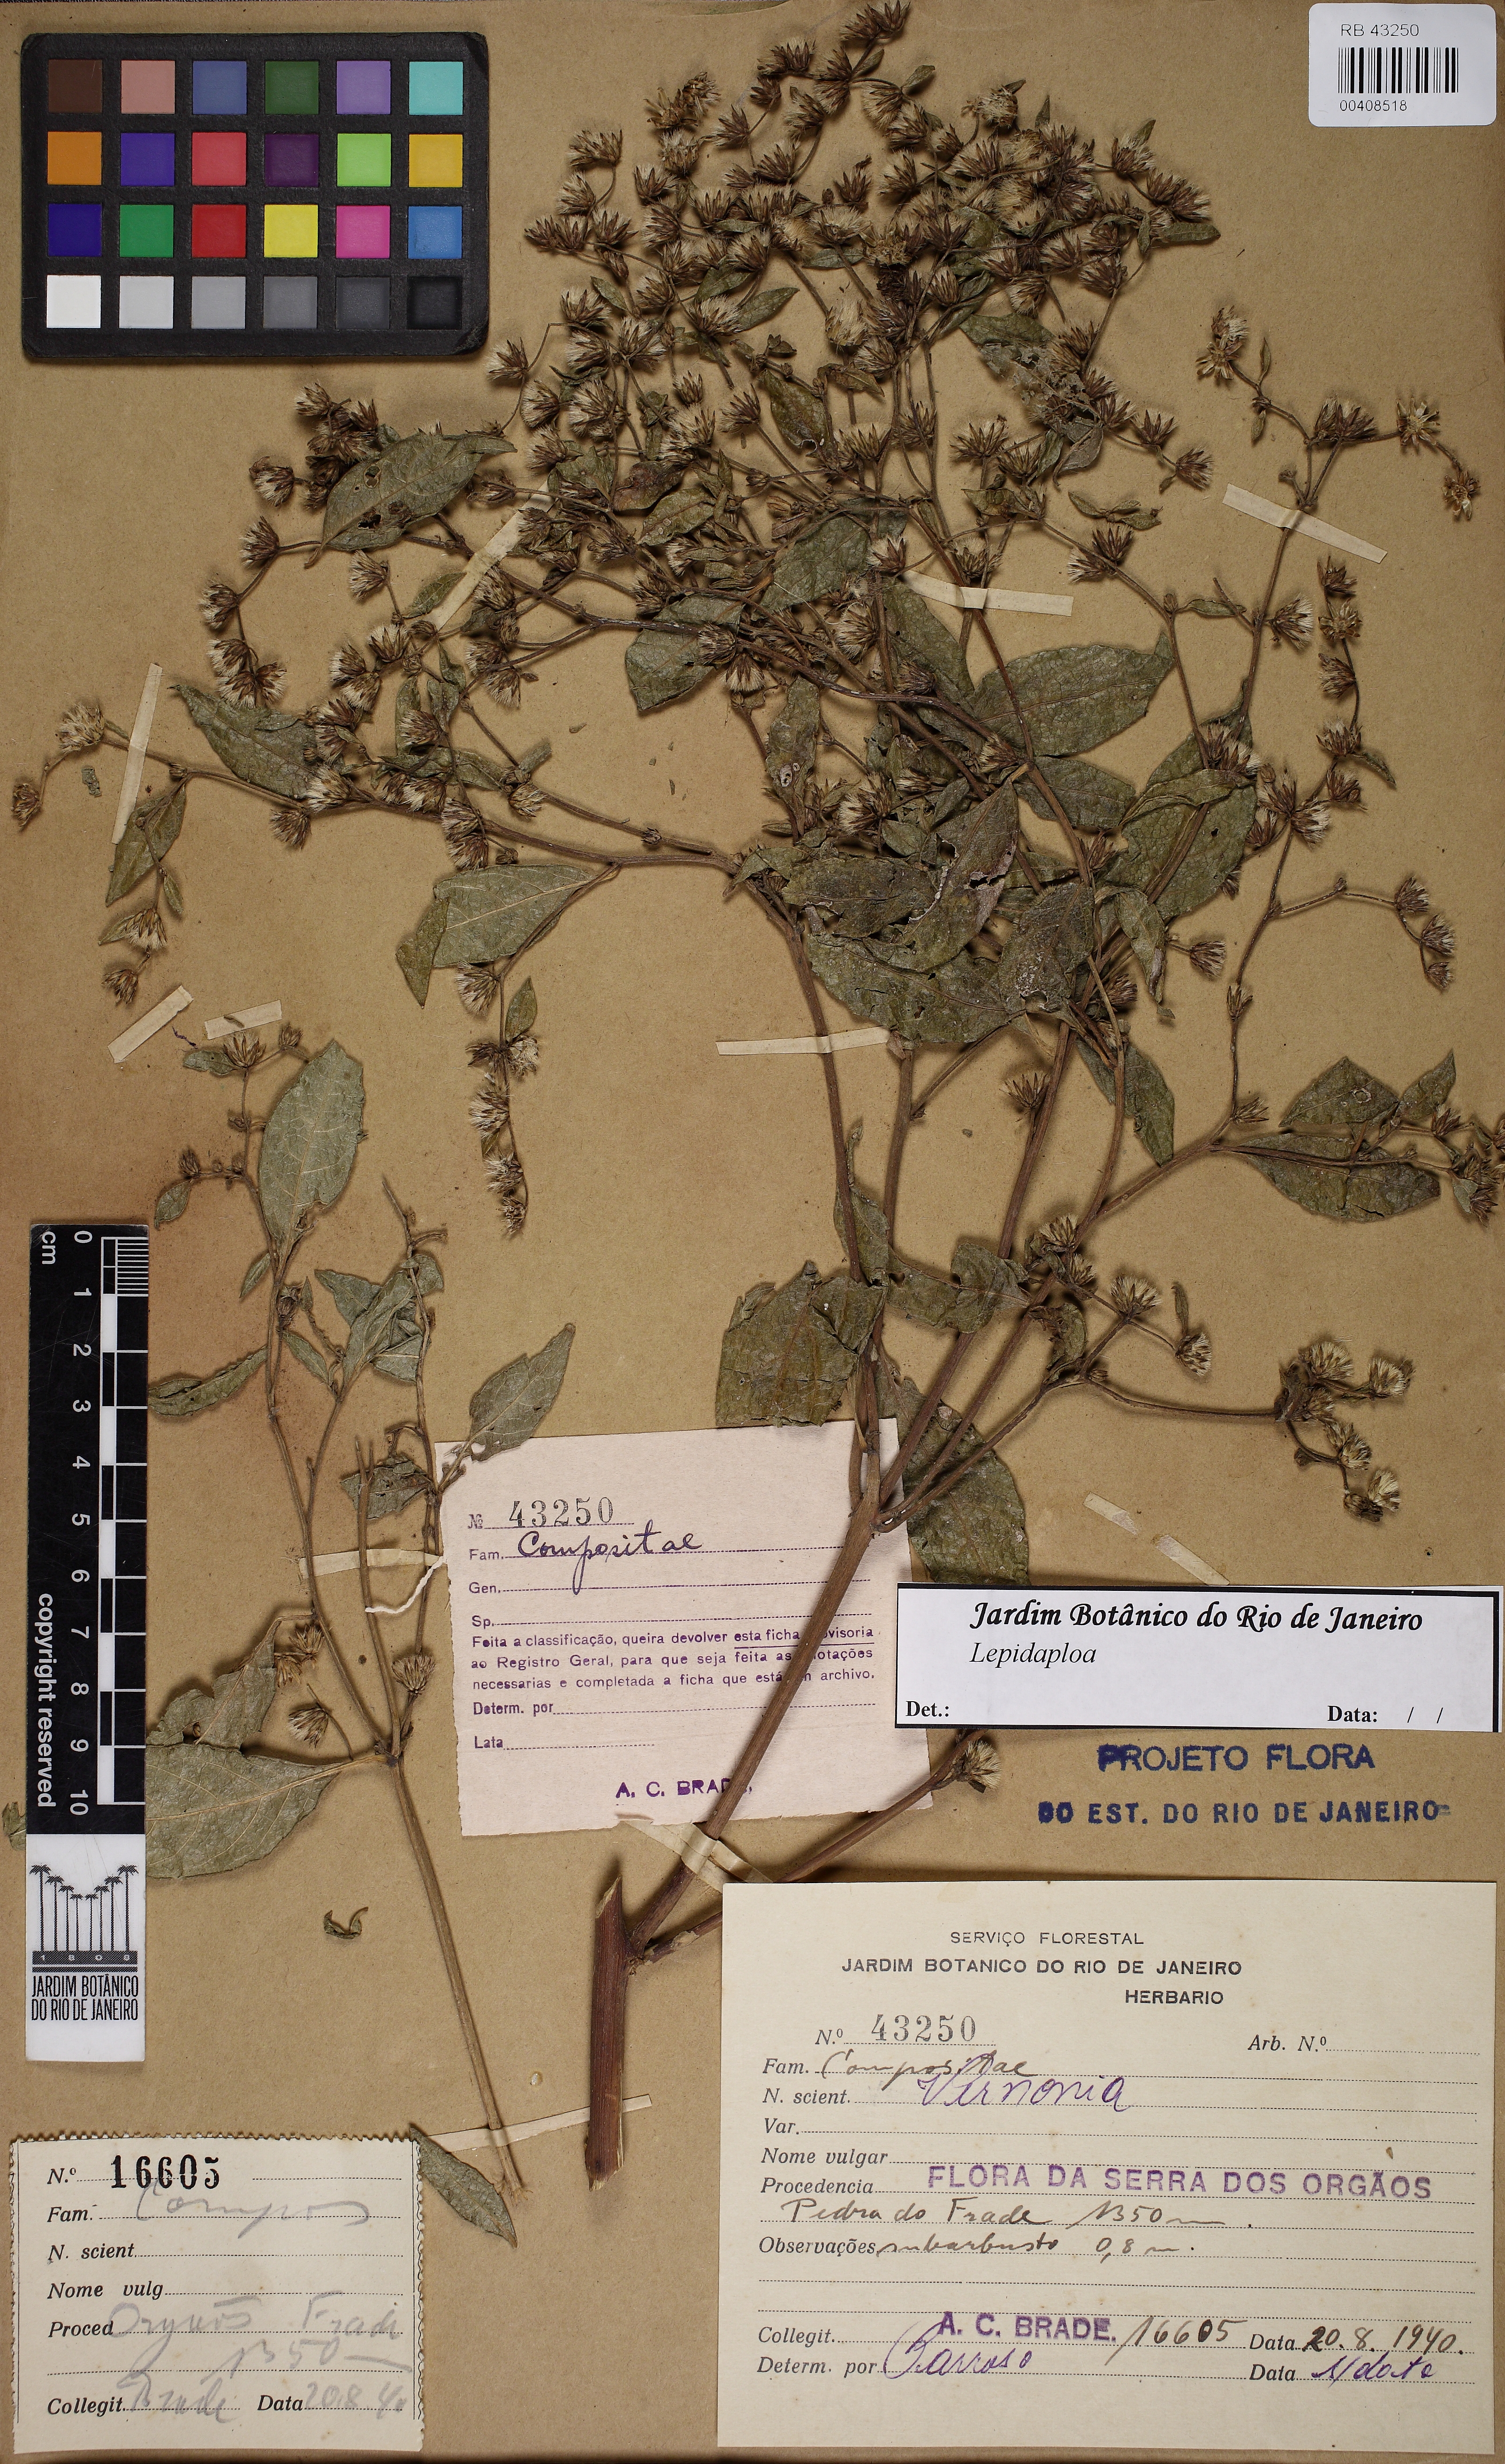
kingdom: Plantae
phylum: Tracheophyta
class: Magnoliopsida
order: Asterales
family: Asteraceae
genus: Lepidaploa
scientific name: Lepidaploa
